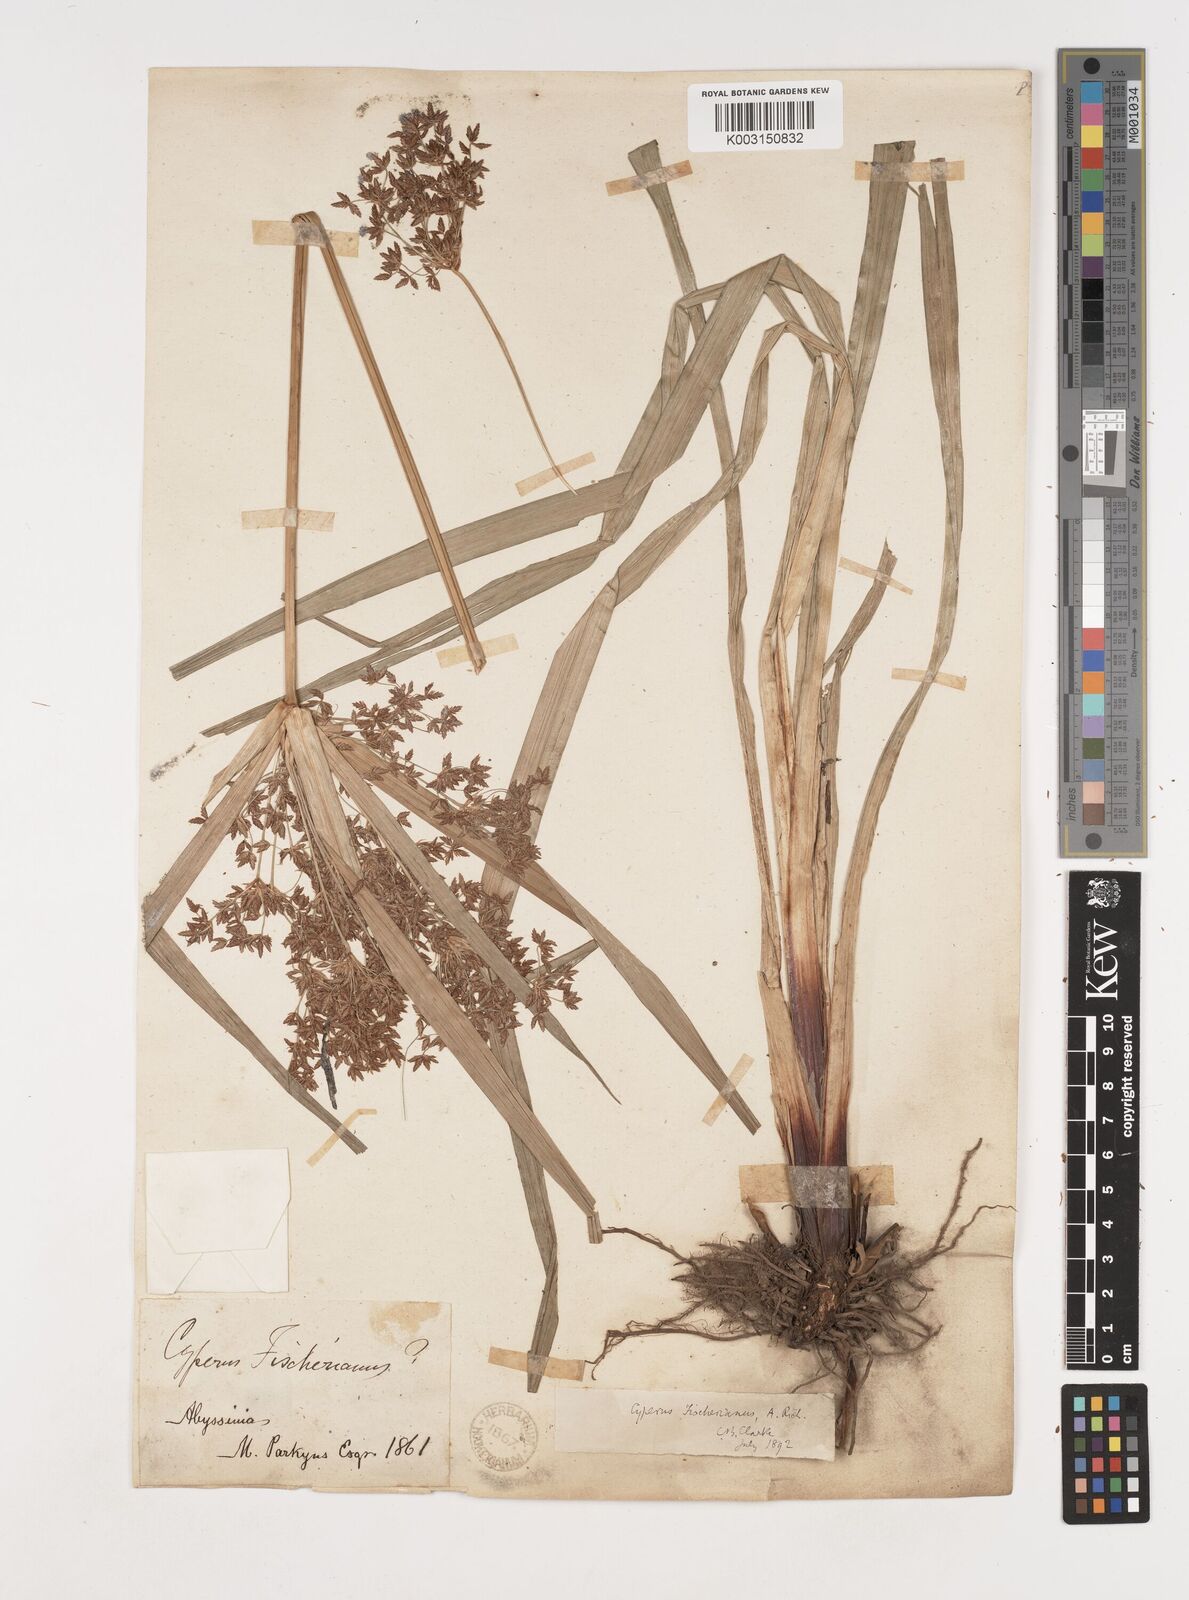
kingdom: Plantae
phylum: Tracheophyta
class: Liliopsida
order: Poales
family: Cyperaceae
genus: Cyperus
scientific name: Cyperus fischerianus
